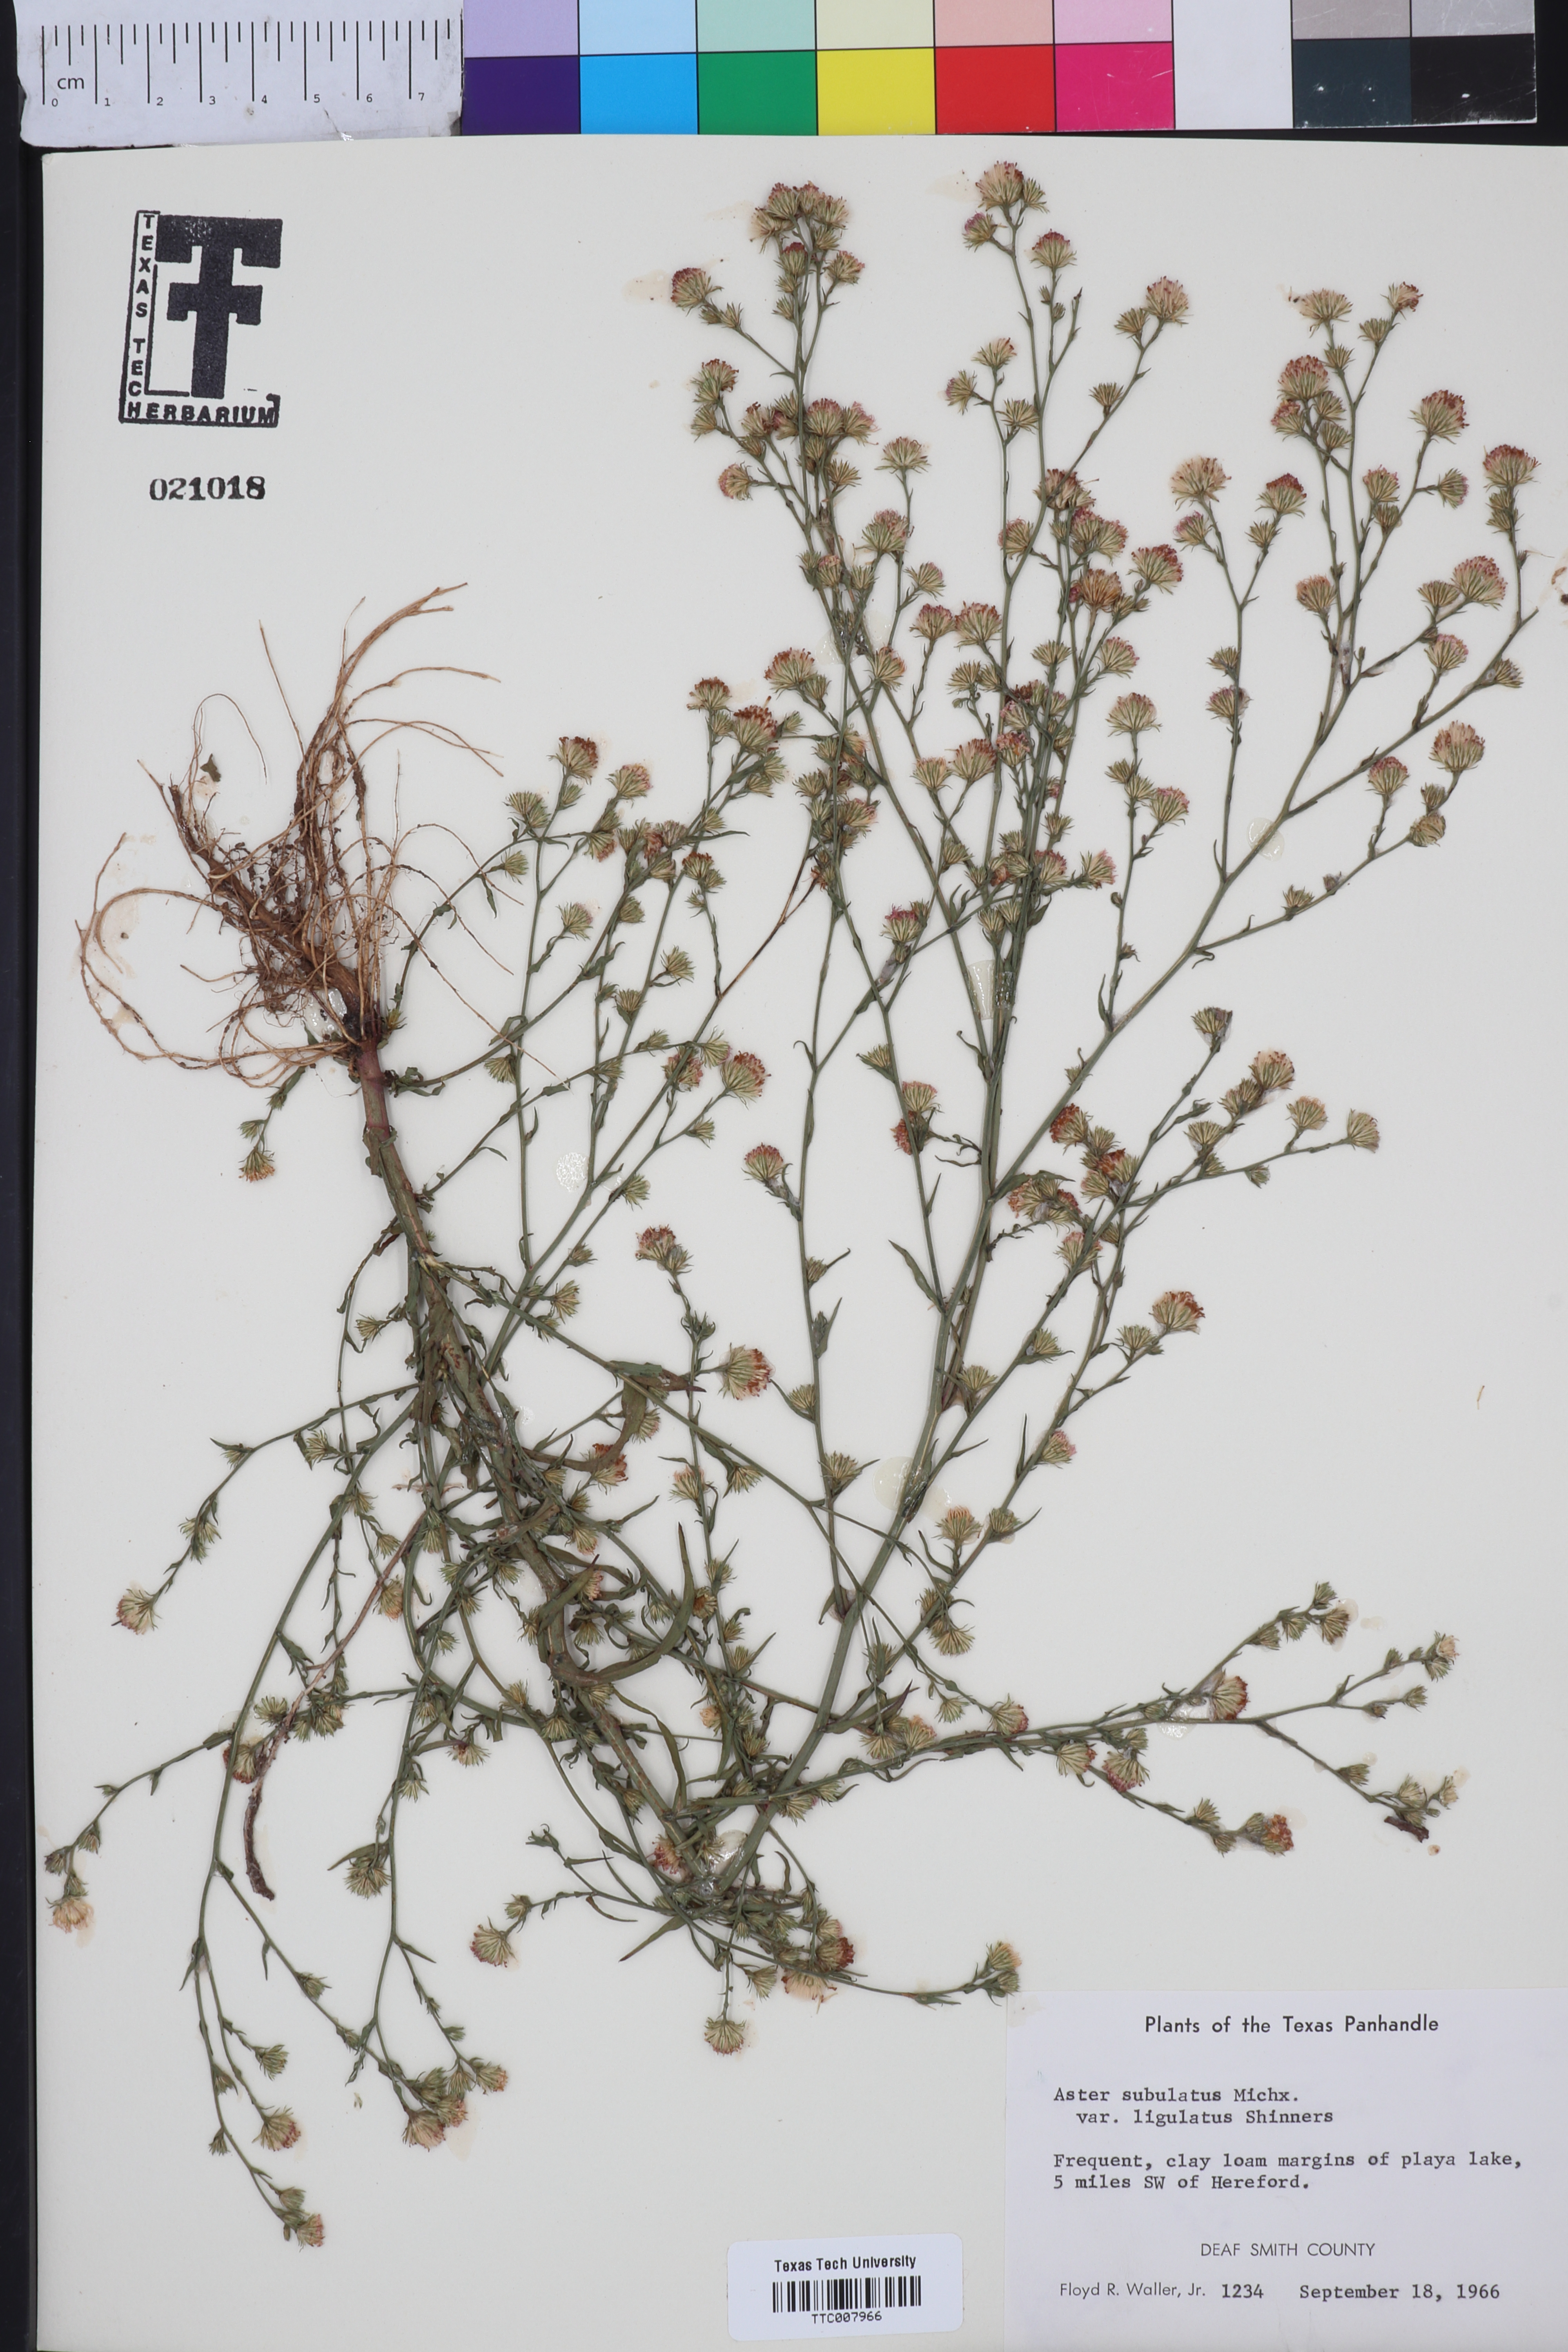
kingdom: Plantae
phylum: Tracheophyta
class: Magnoliopsida
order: Asterales
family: Asteraceae
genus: Symphyotrichum
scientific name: Symphyotrichum divaricatum
